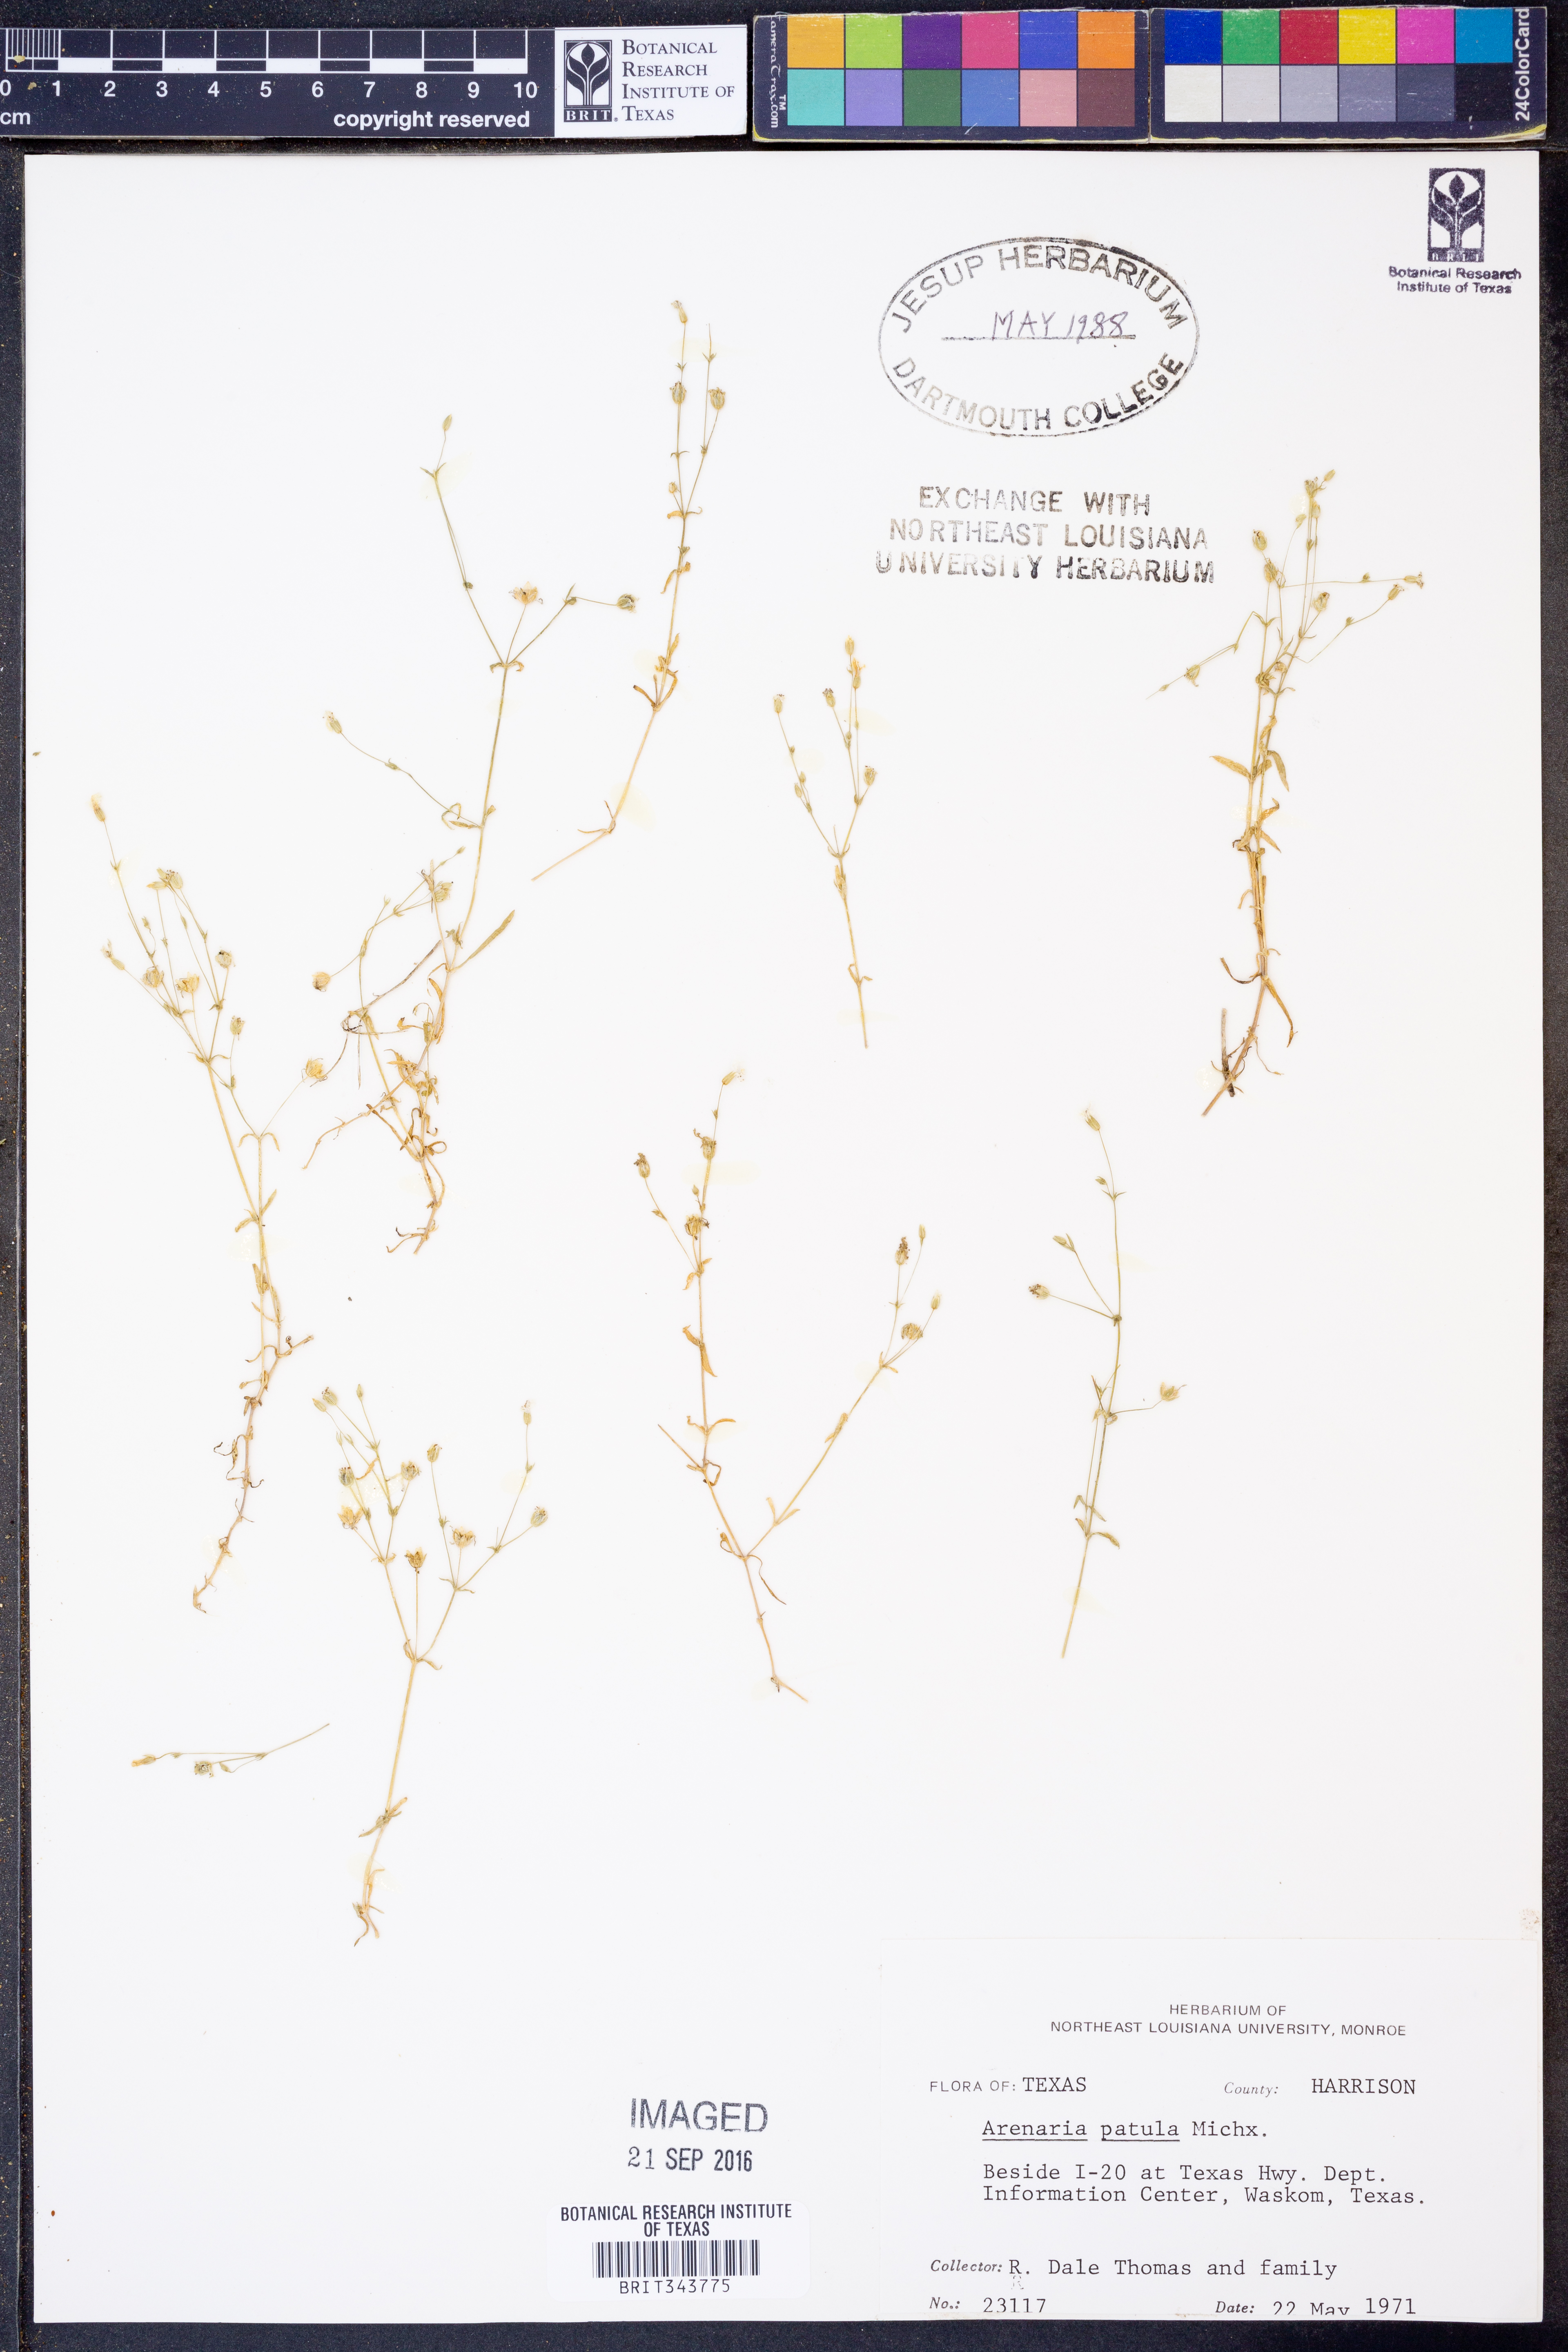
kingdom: Plantae
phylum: Tracheophyta
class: Magnoliopsida
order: Caryophyllales
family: Caryophyllaceae
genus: Mononeuria
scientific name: Mononeuria patula
